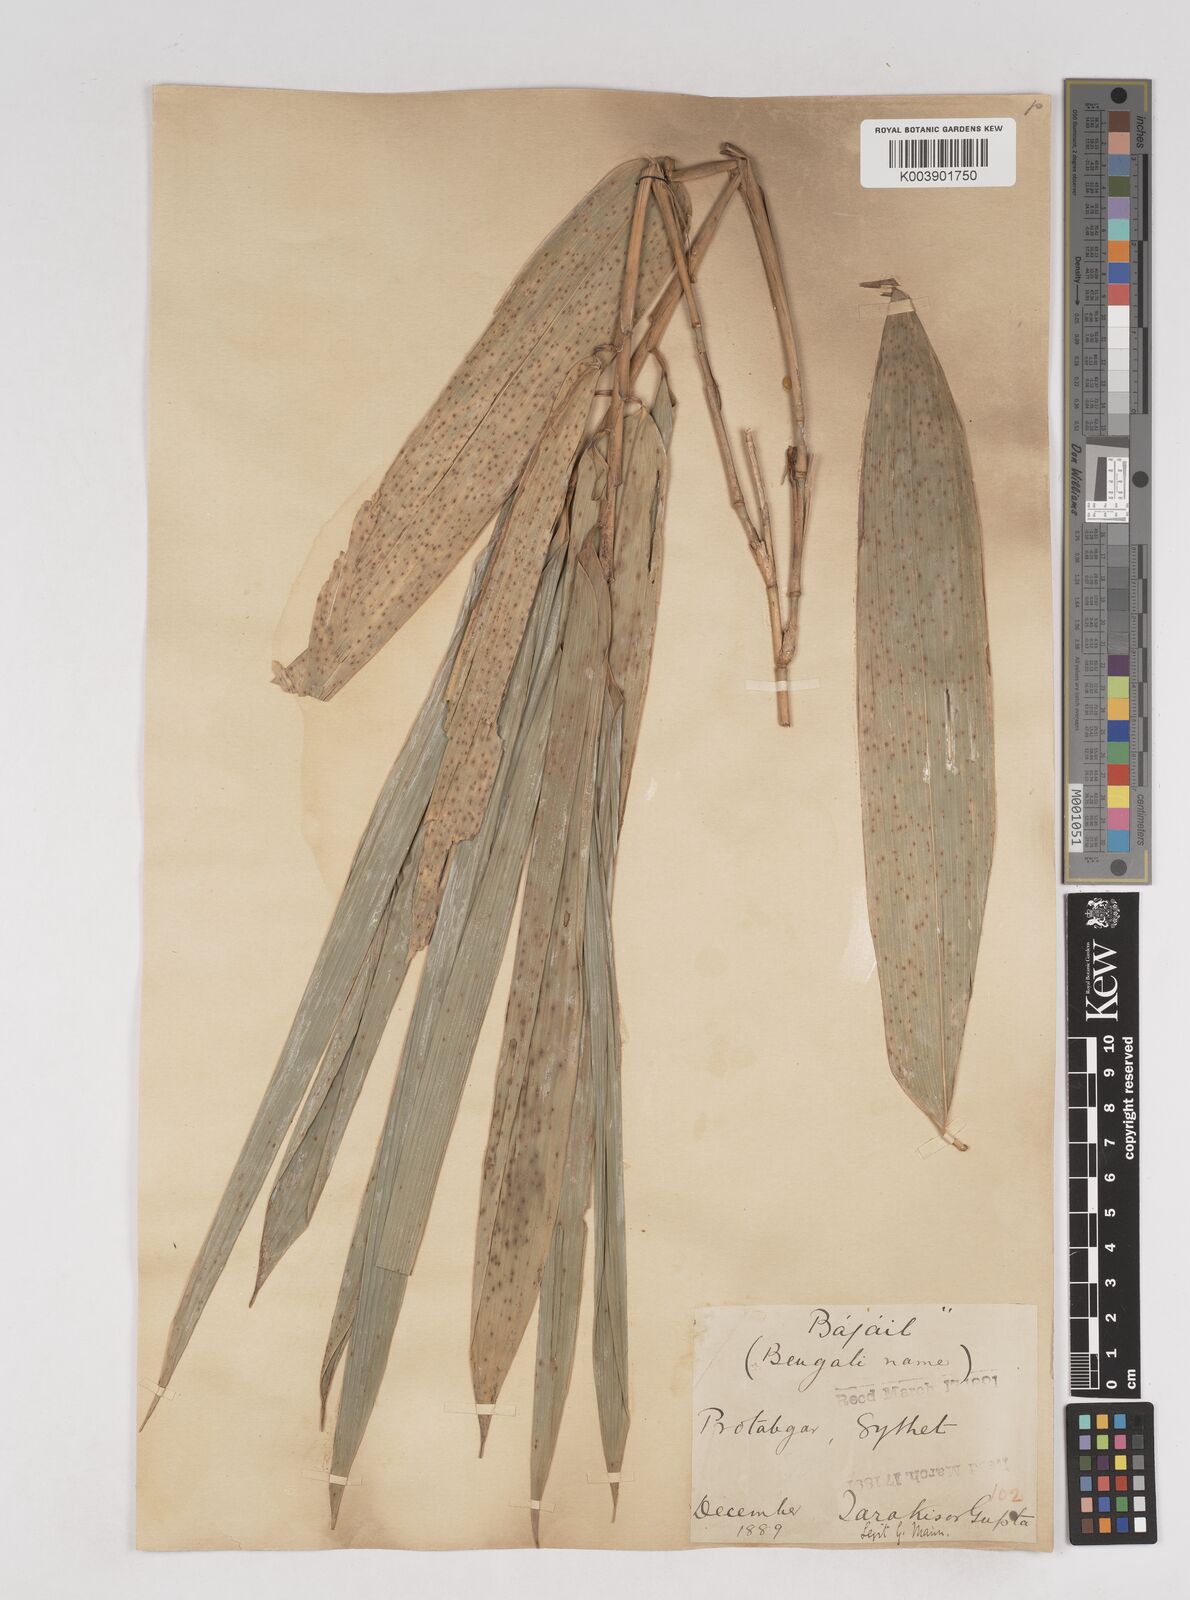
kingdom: Plantae
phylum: Tracheophyta
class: Liliopsida
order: Poales
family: Poaceae
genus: Schizostachyum
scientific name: Schizostachyum dullooa
